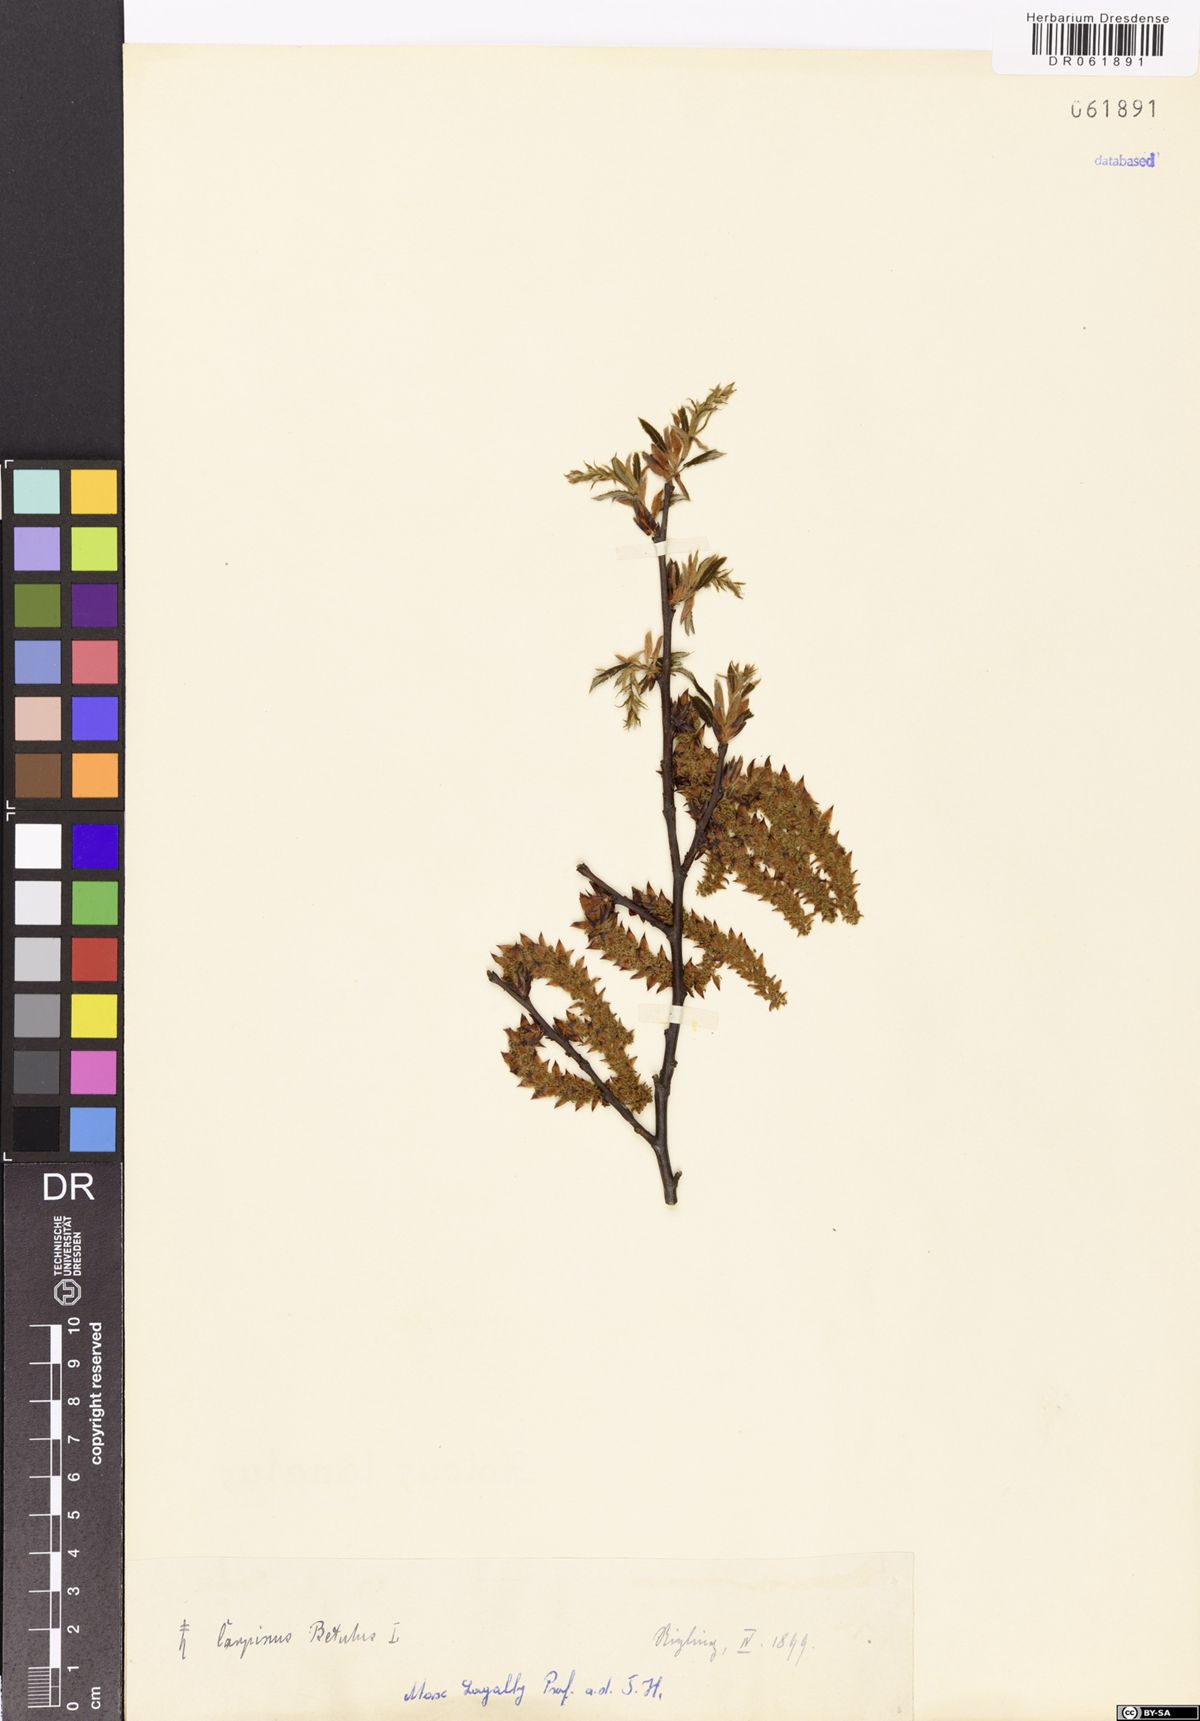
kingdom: Plantae
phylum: Tracheophyta
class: Magnoliopsida
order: Fagales
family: Betulaceae
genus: Carpinus
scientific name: Carpinus betulus
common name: Hornbeam
